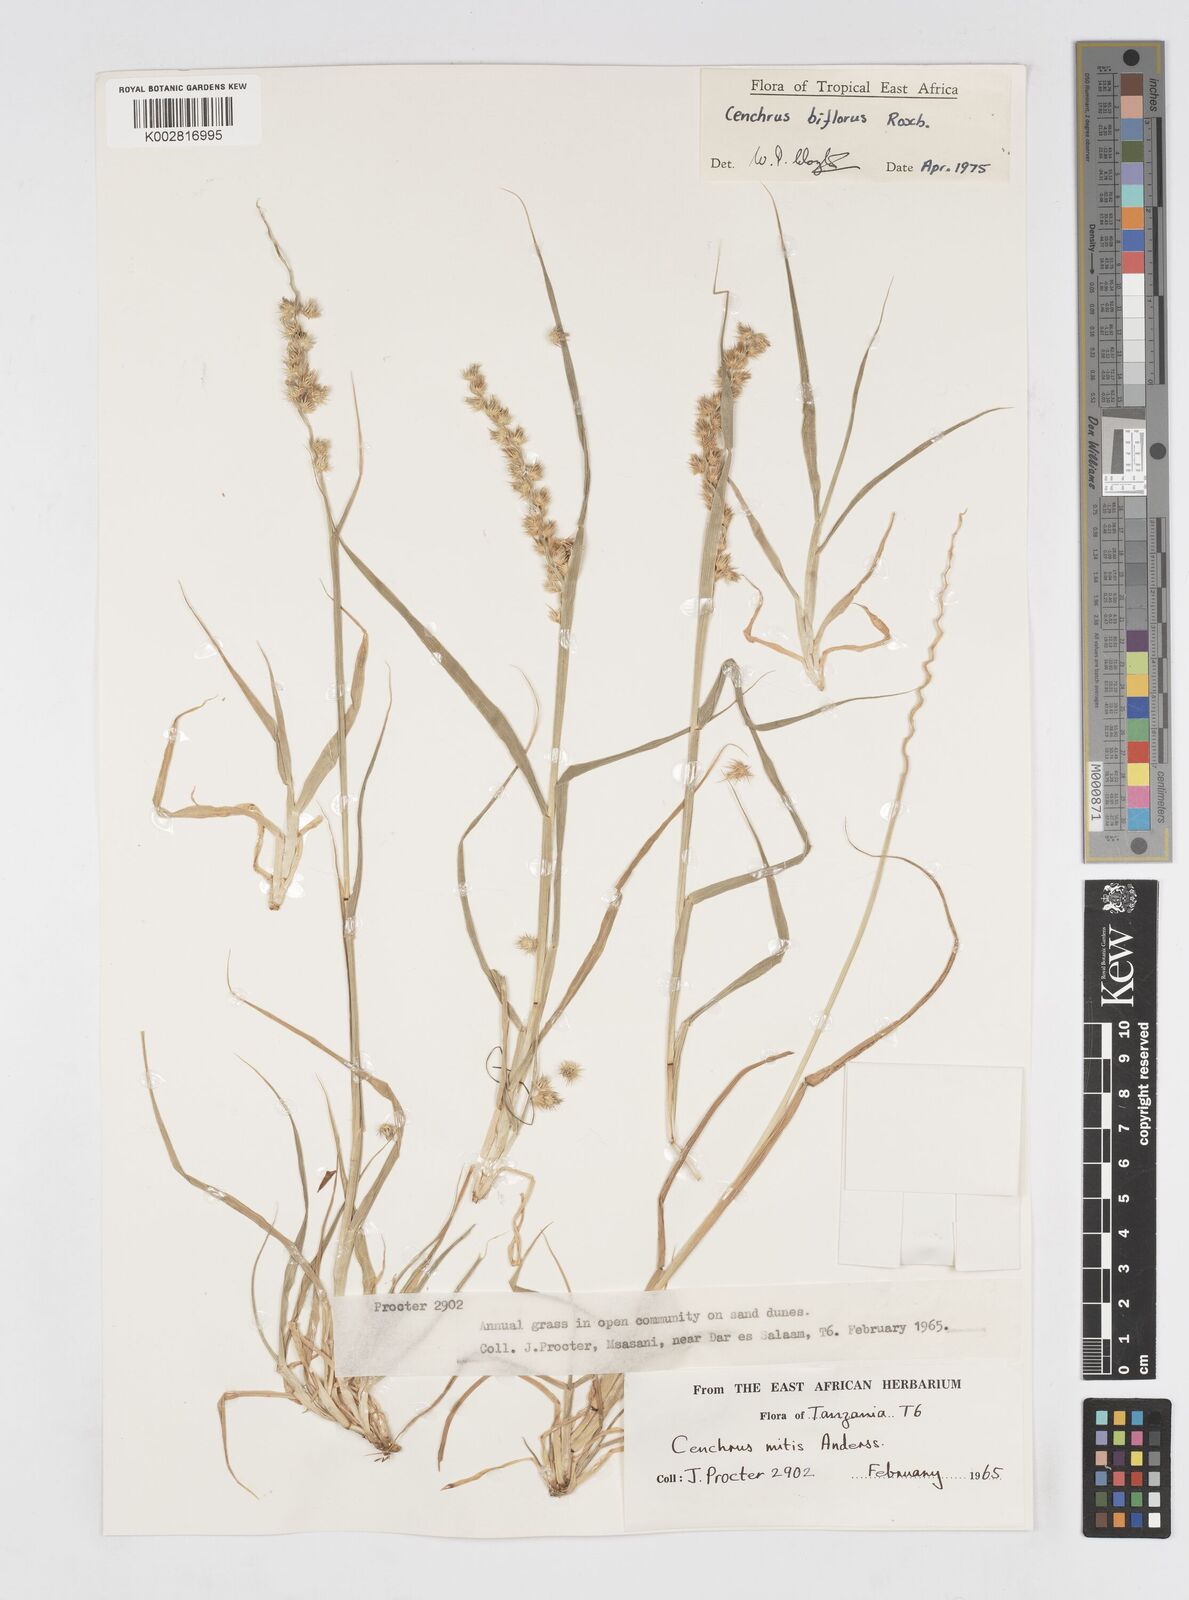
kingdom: Plantae
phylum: Tracheophyta
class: Liliopsida
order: Poales
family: Poaceae
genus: Cenchrus
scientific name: Cenchrus biflorus
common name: Indian sandbur
